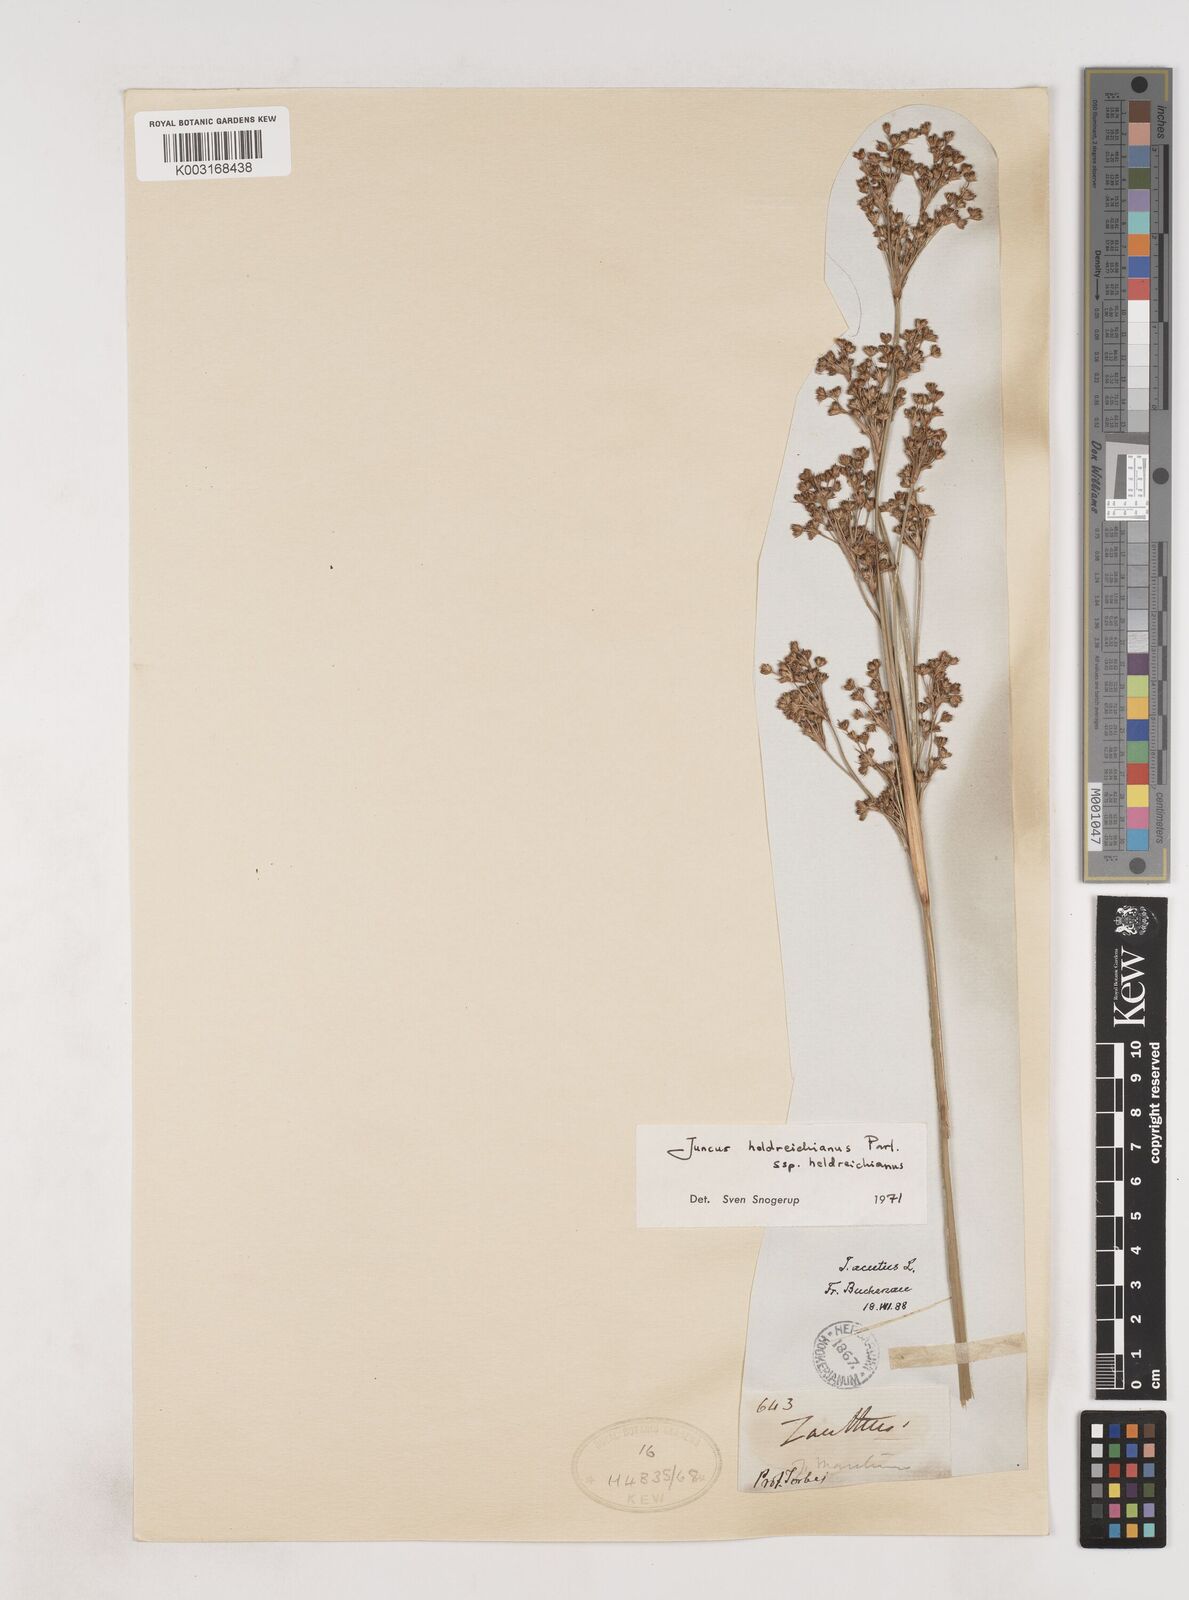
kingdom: Plantae
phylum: Tracheophyta
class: Liliopsida
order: Poales
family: Juncaceae
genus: Juncus
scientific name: Juncus heldreichianus
